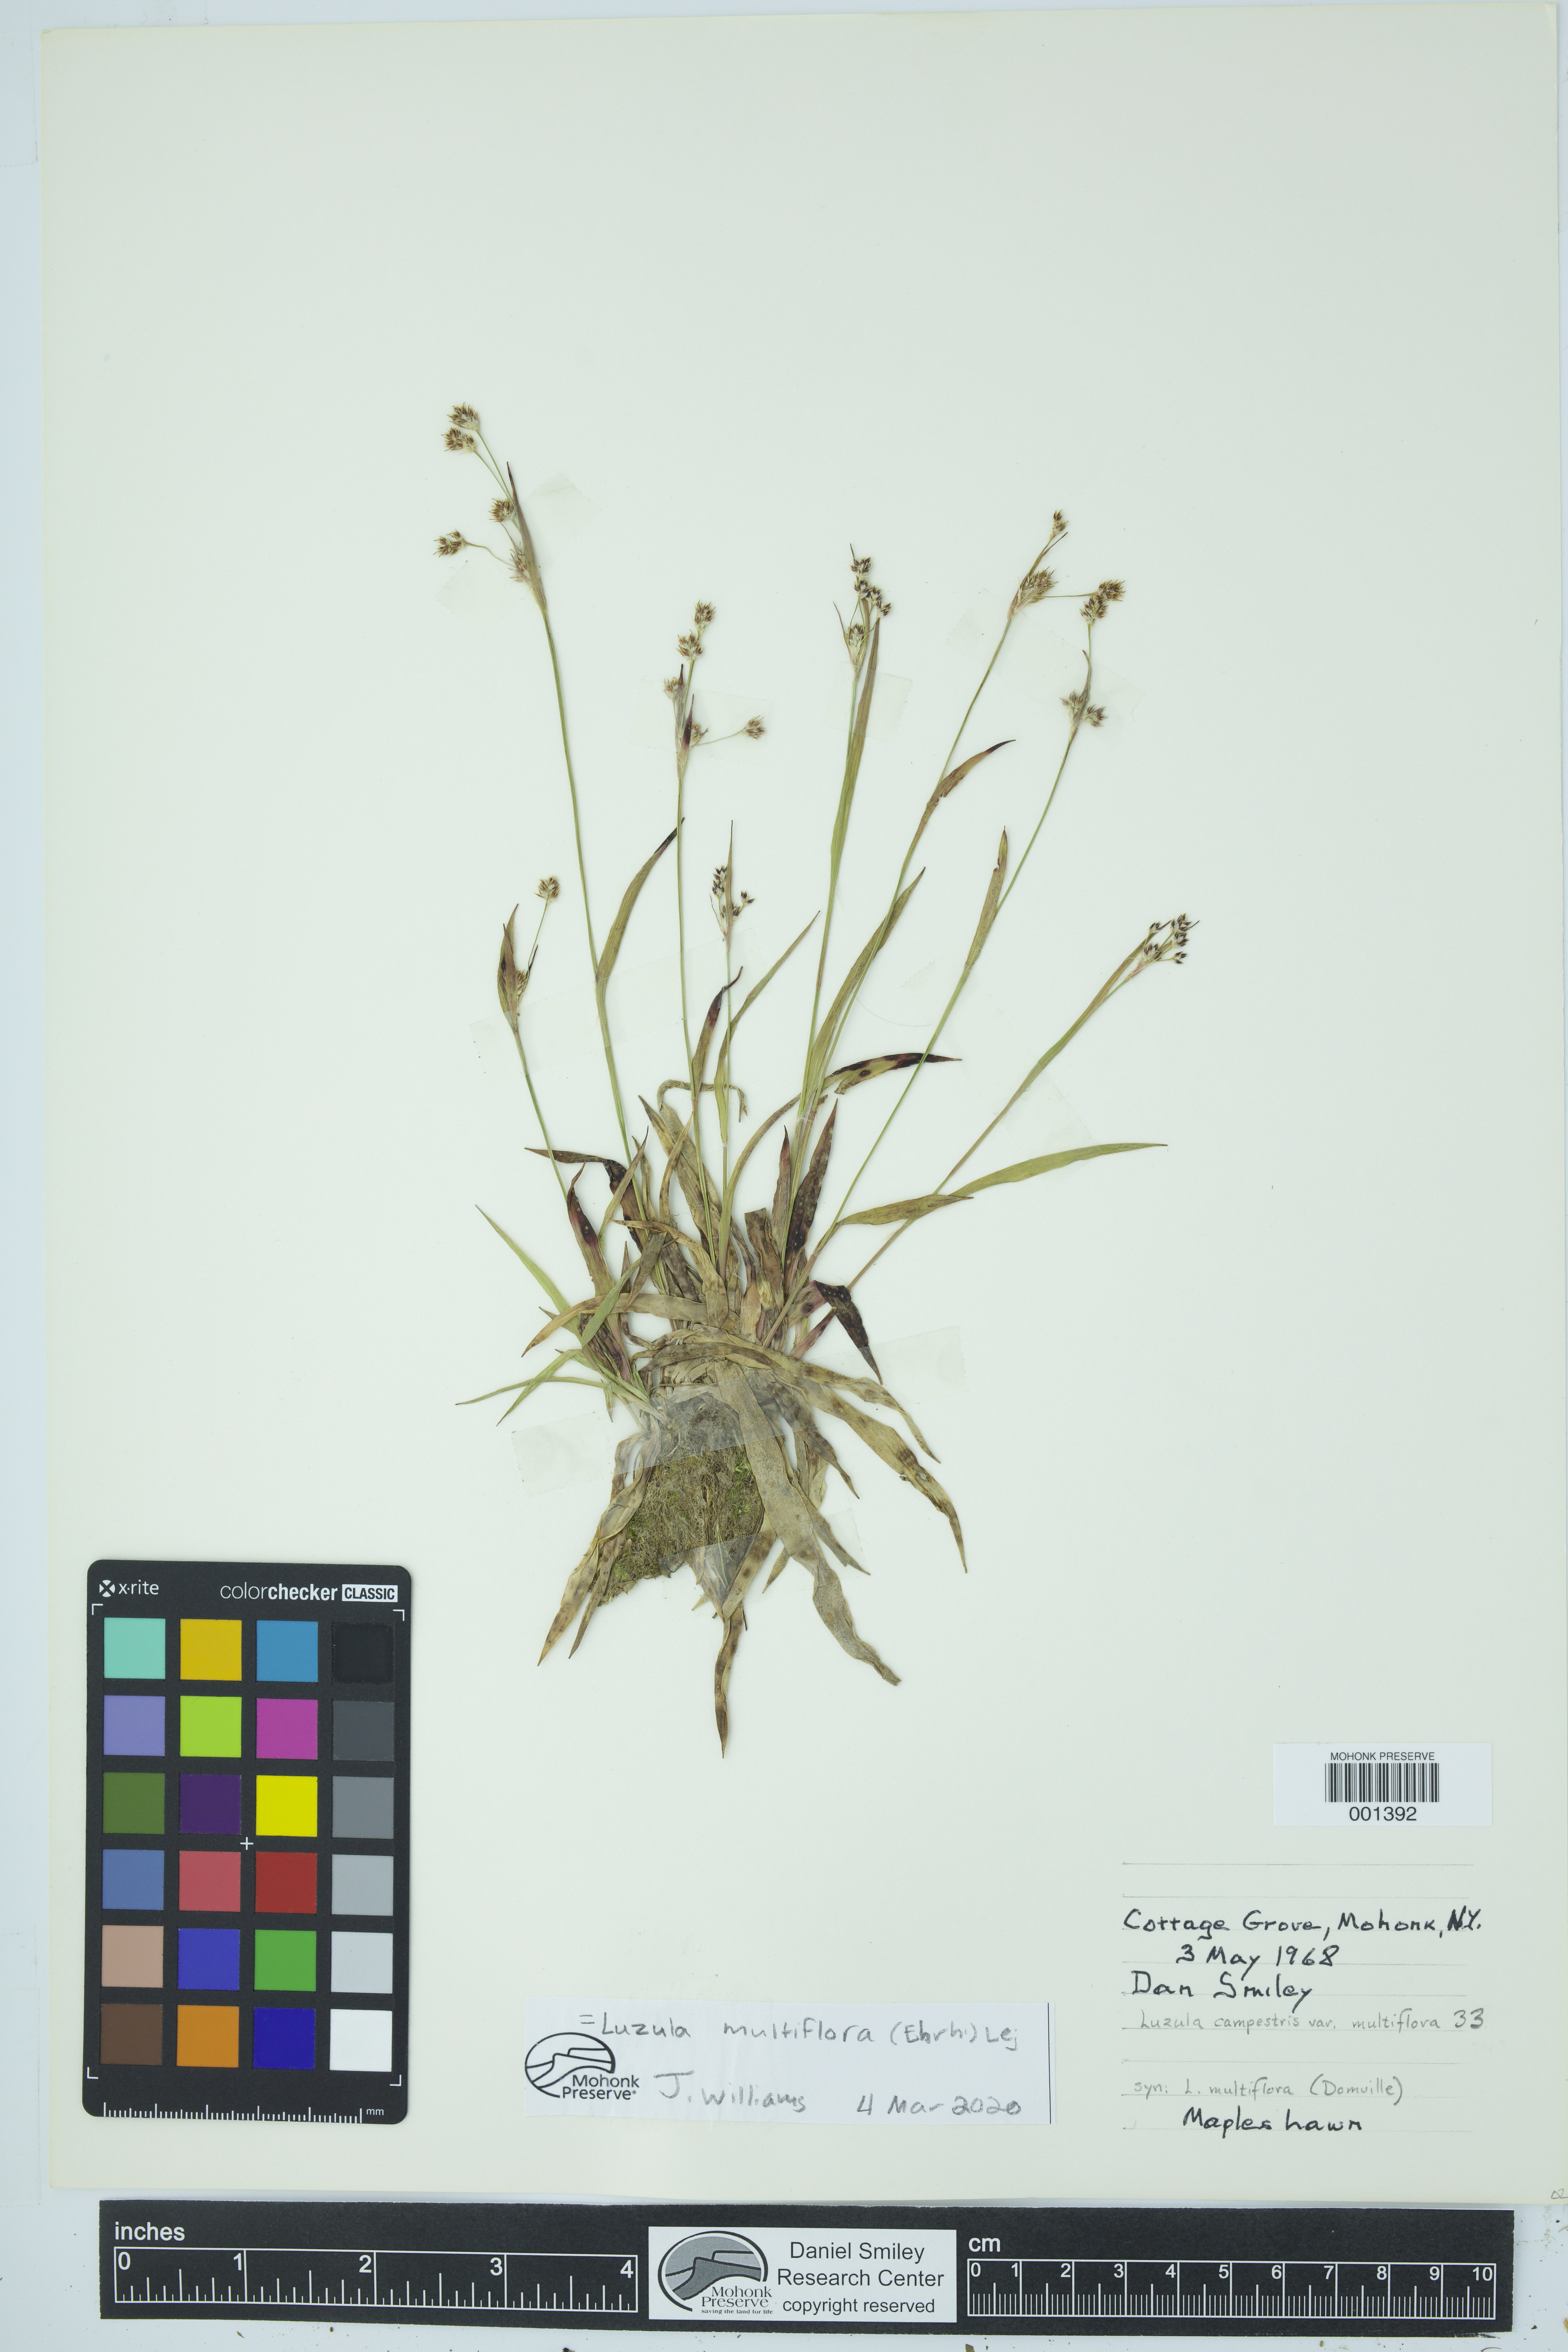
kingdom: Plantae
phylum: Tracheophyta
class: Liliopsida
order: Poales
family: Juncaceae
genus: Luzula
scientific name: Luzula multiflora
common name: Heath wood-rush
